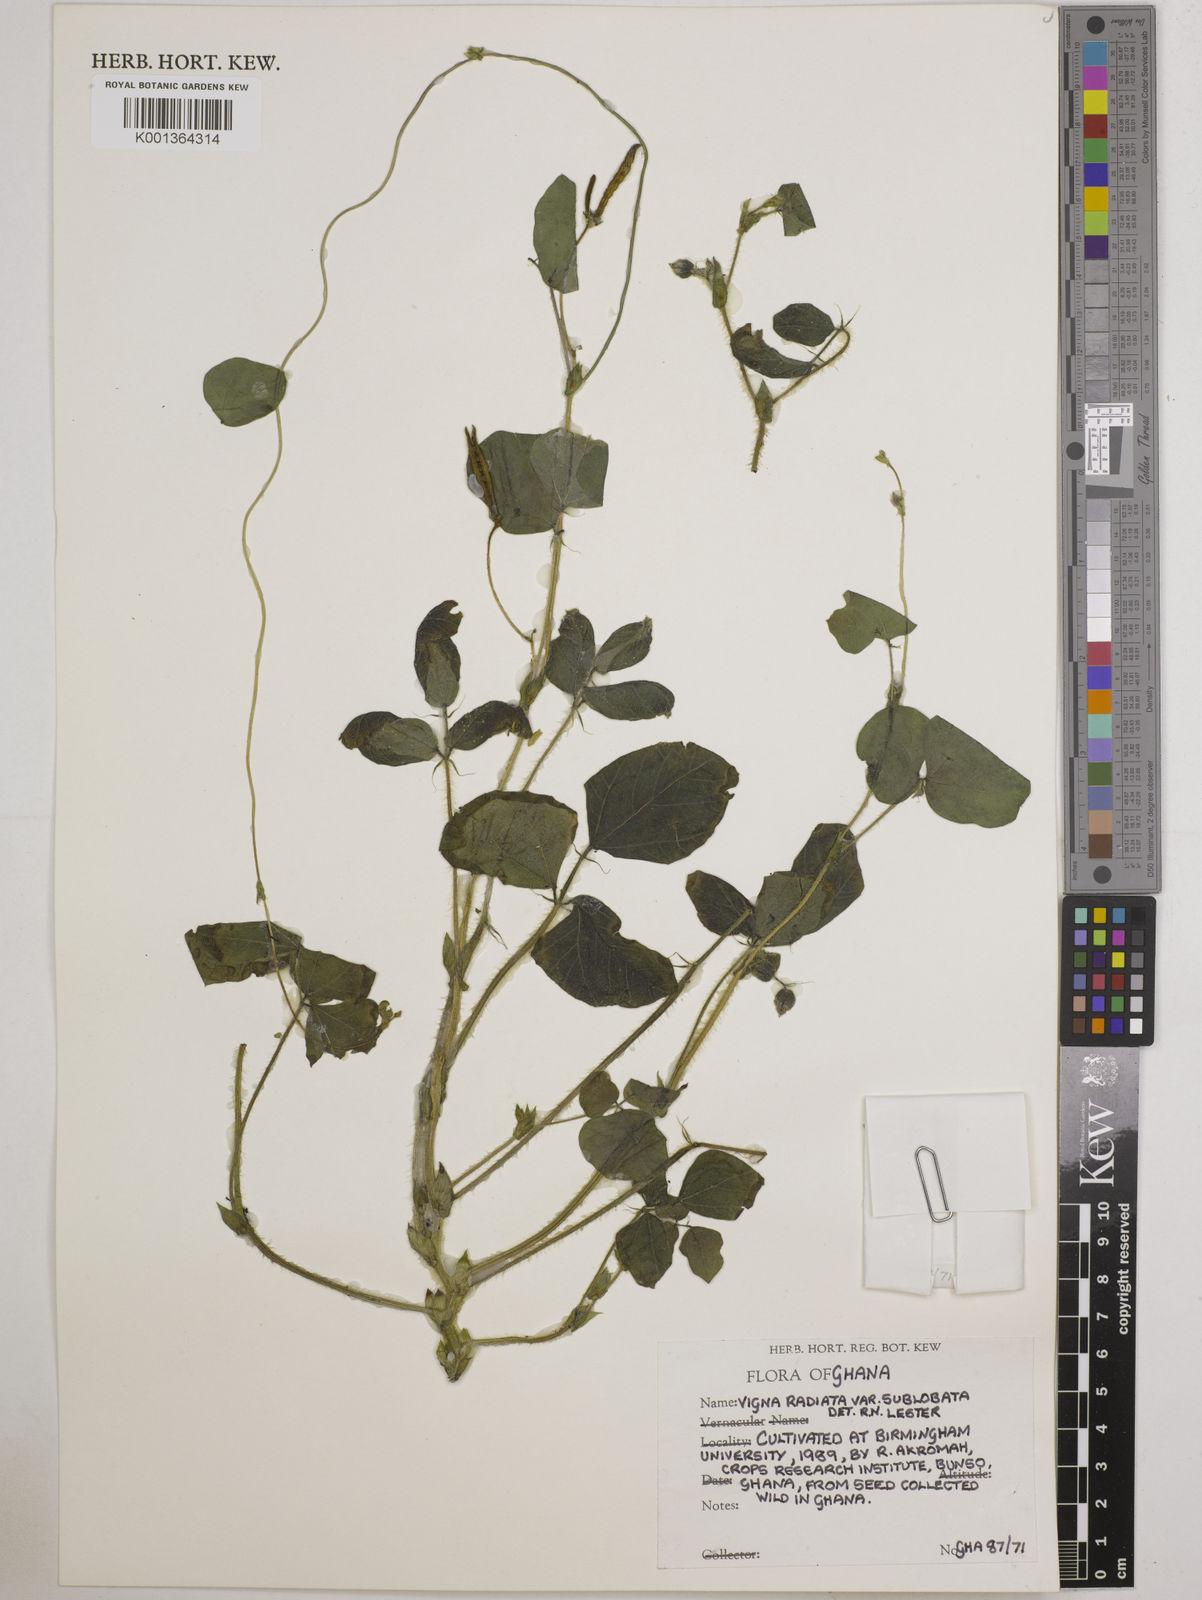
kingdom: Plantae
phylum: Tracheophyta
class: Magnoliopsida
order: Fabales
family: Fabaceae
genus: Vigna
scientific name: Vigna
